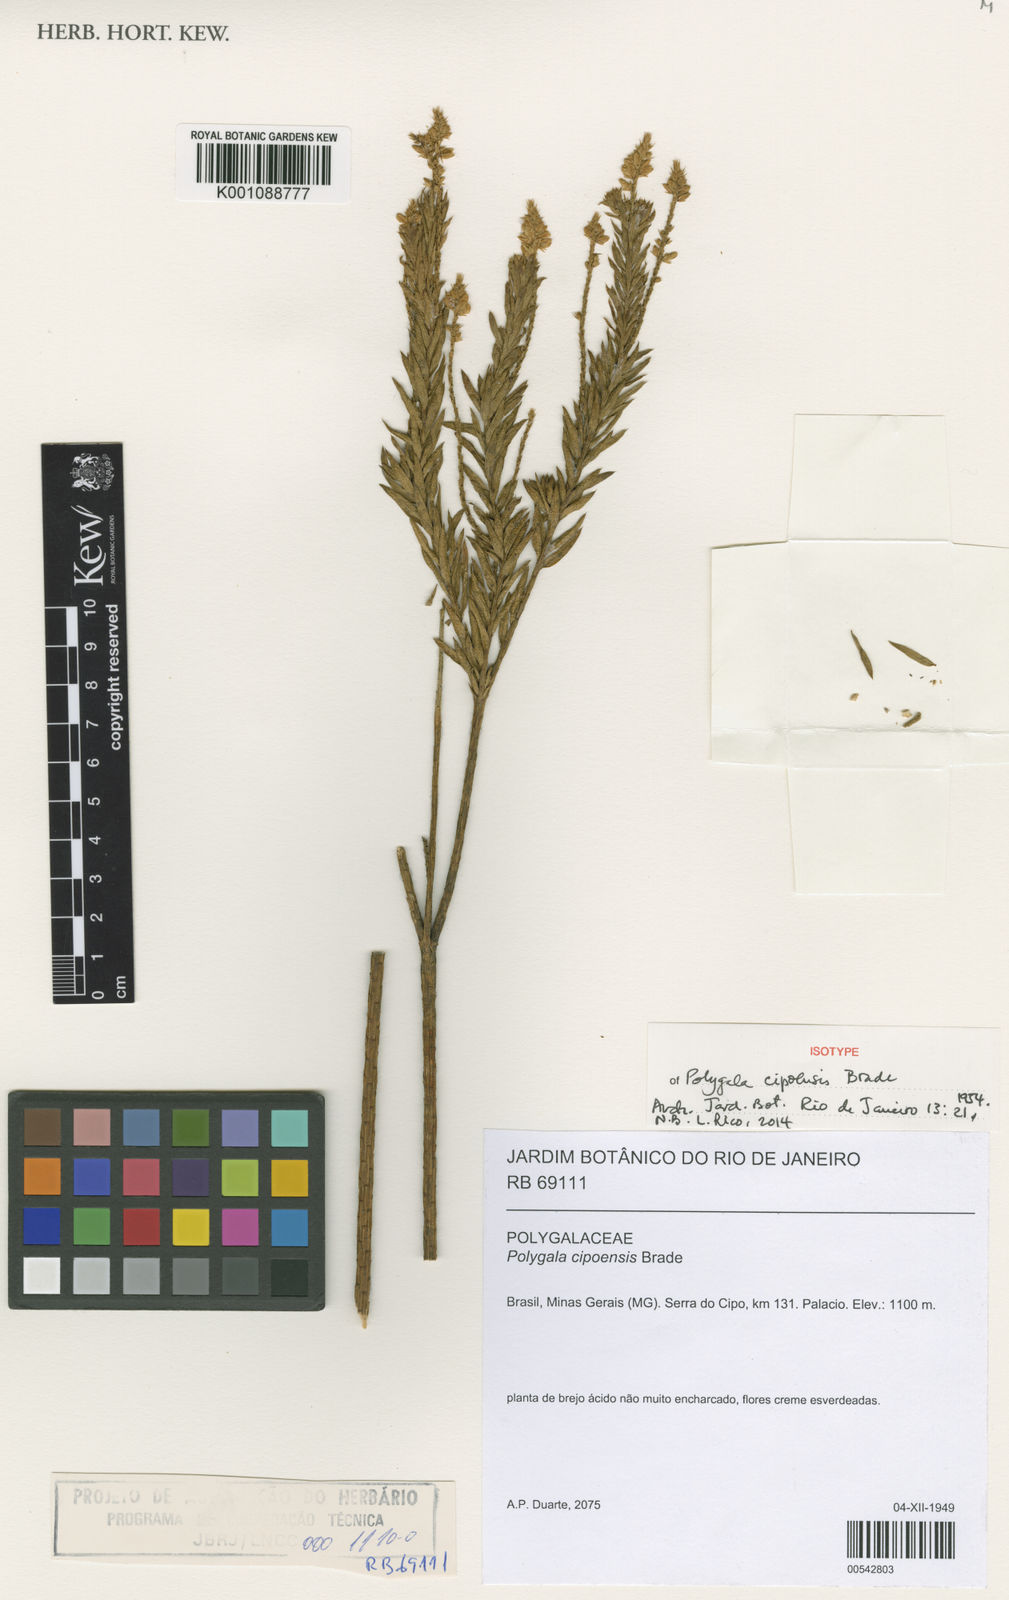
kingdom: Plantae
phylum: Tracheophyta
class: Magnoliopsida
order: Fabales
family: Polygalaceae
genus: Polygala
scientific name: Polygala densifolia
